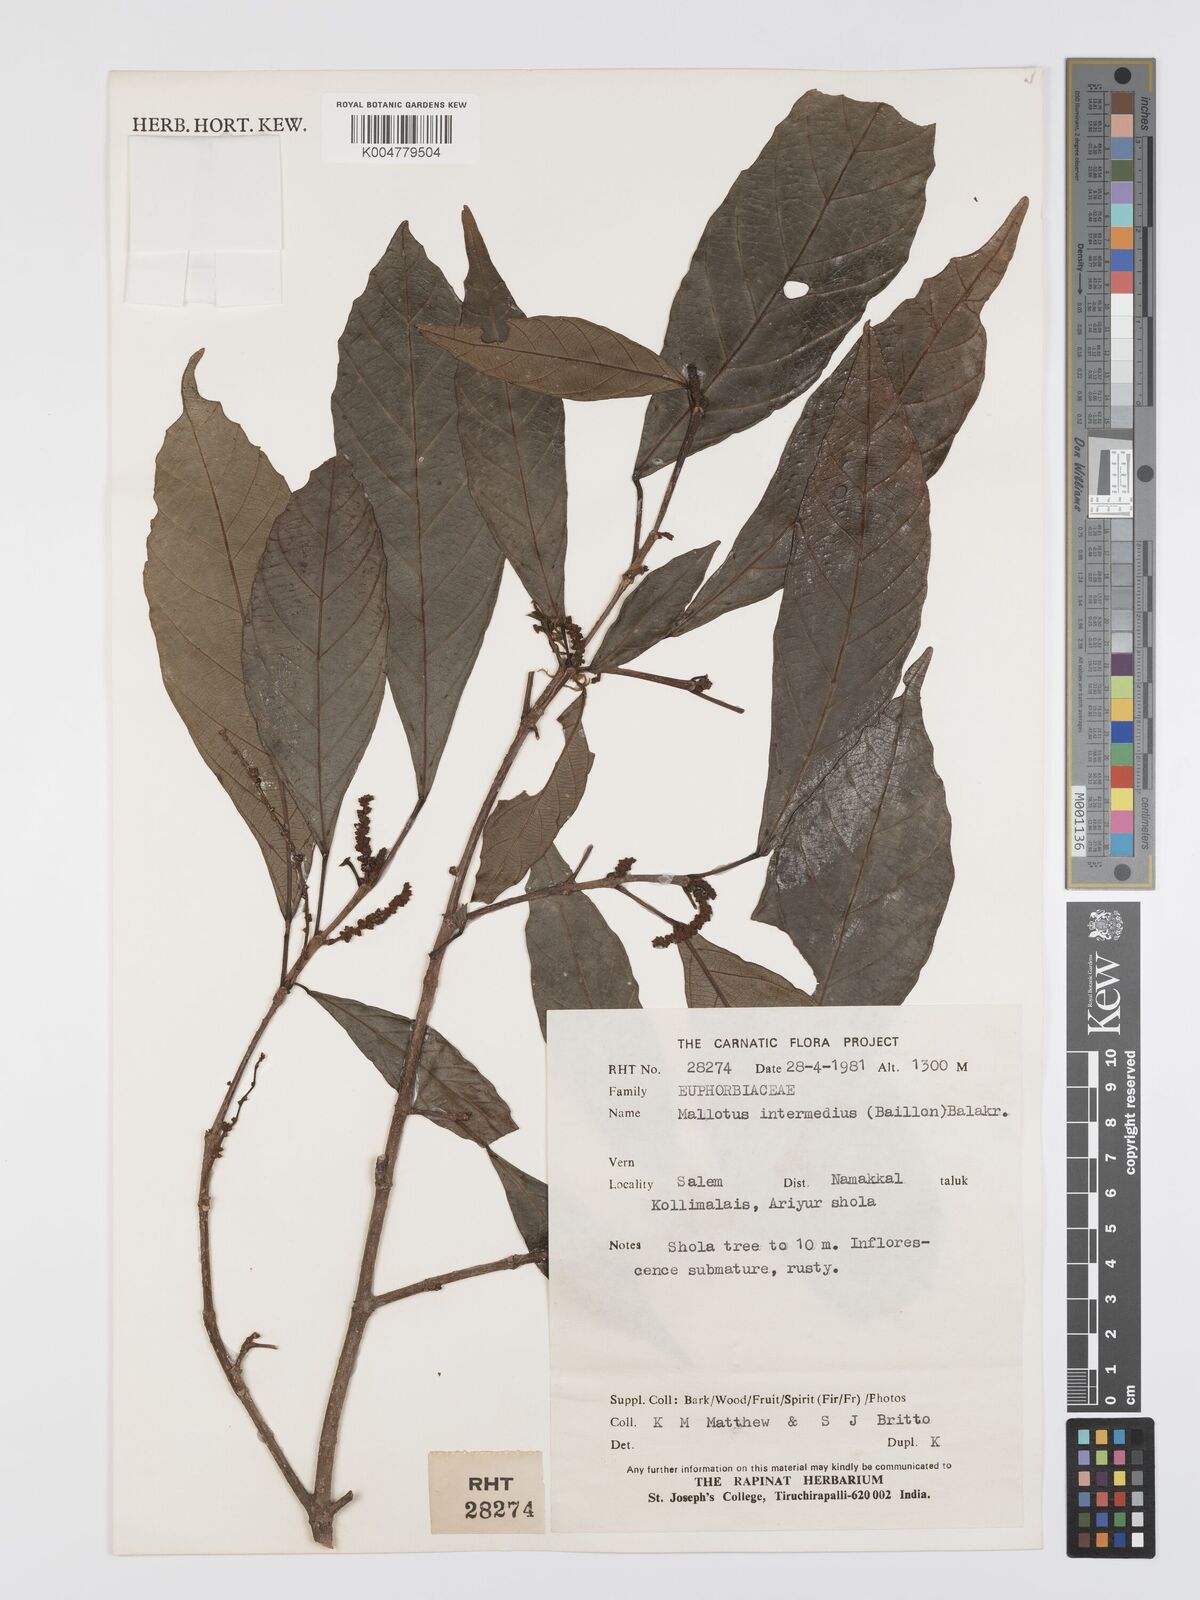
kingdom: Plantae
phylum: Tracheophyta
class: Magnoliopsida
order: Malpighiales
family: Euphorbiaceae
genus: Mallotus
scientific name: Mallotus resinosus
